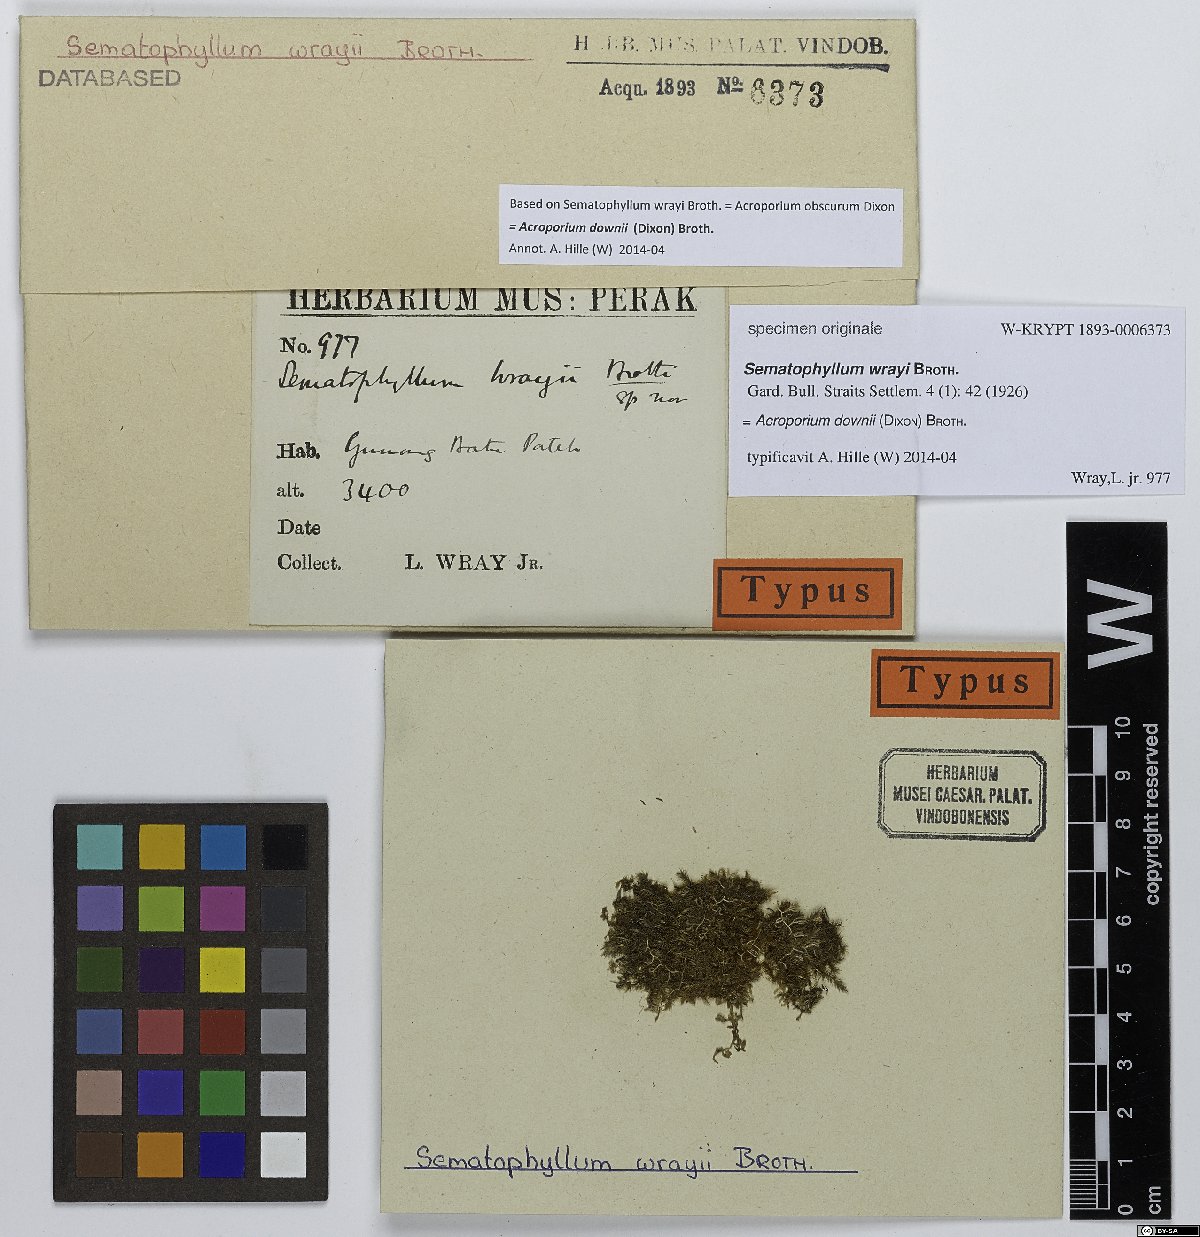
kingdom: Plantae
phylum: Bryophyta
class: Bryopsida
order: Hypnales
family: Sematophyllaceae
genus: Sematophyllum
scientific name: Sematophyllum
